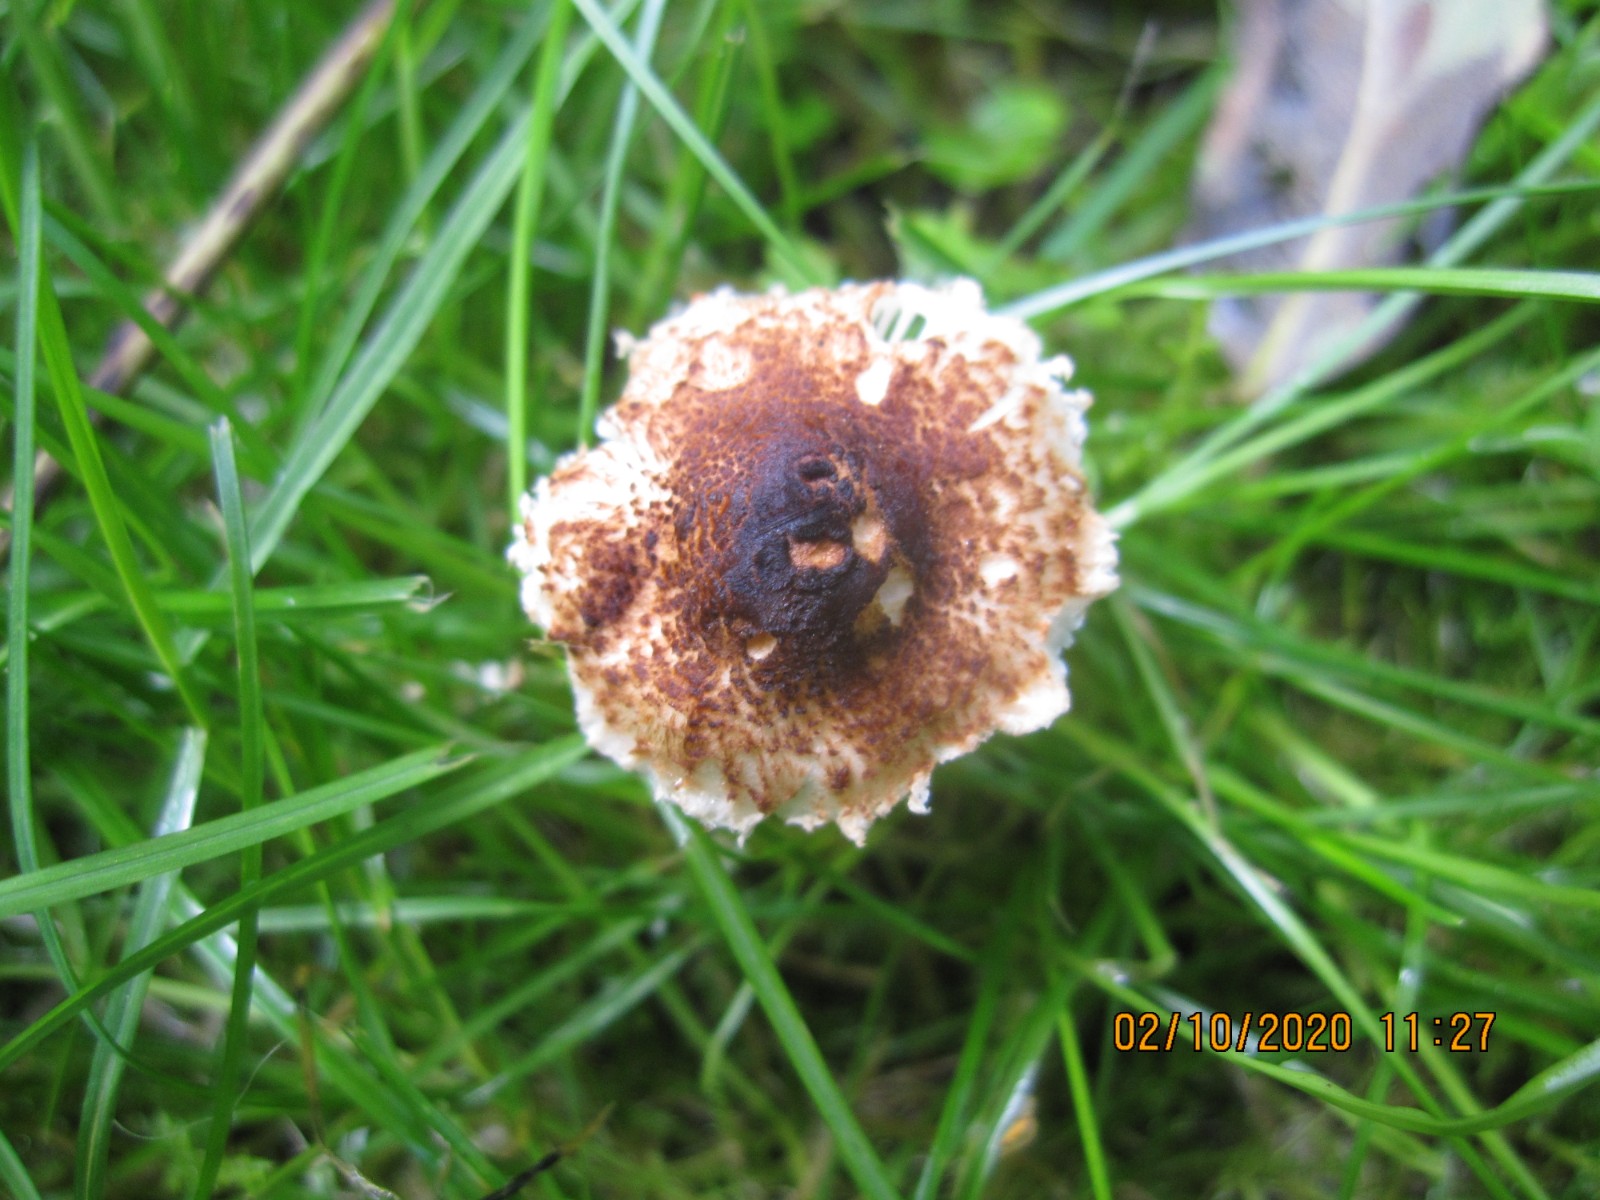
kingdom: Fungi
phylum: Basidiomycota
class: Agaricomycetes
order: Agaricales
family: Agaricaceae
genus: Lepiota
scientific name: Lepiota castanea
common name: kastaniebrun parasolhat
